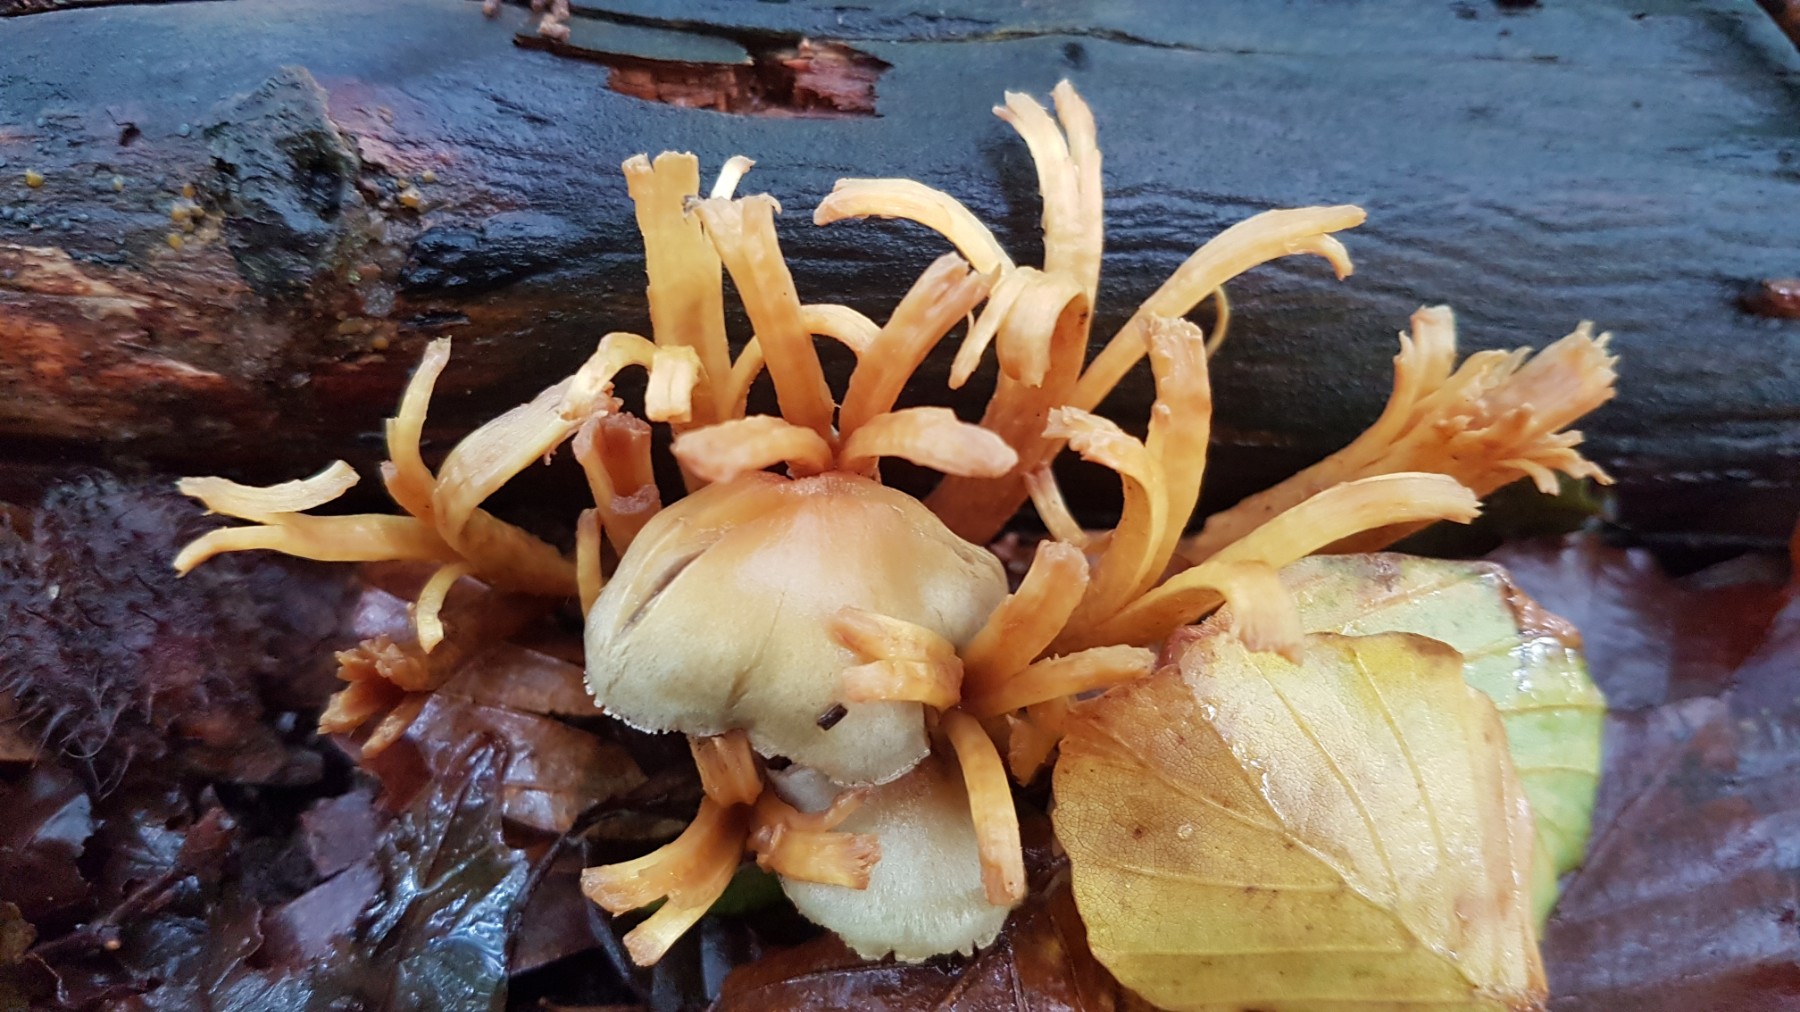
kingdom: Fungi
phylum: Basidiomycota
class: Agaricomycetes
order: Agaricales
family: Strophariaceae
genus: Hypholoma
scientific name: Hypholoma
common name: svovlhat
